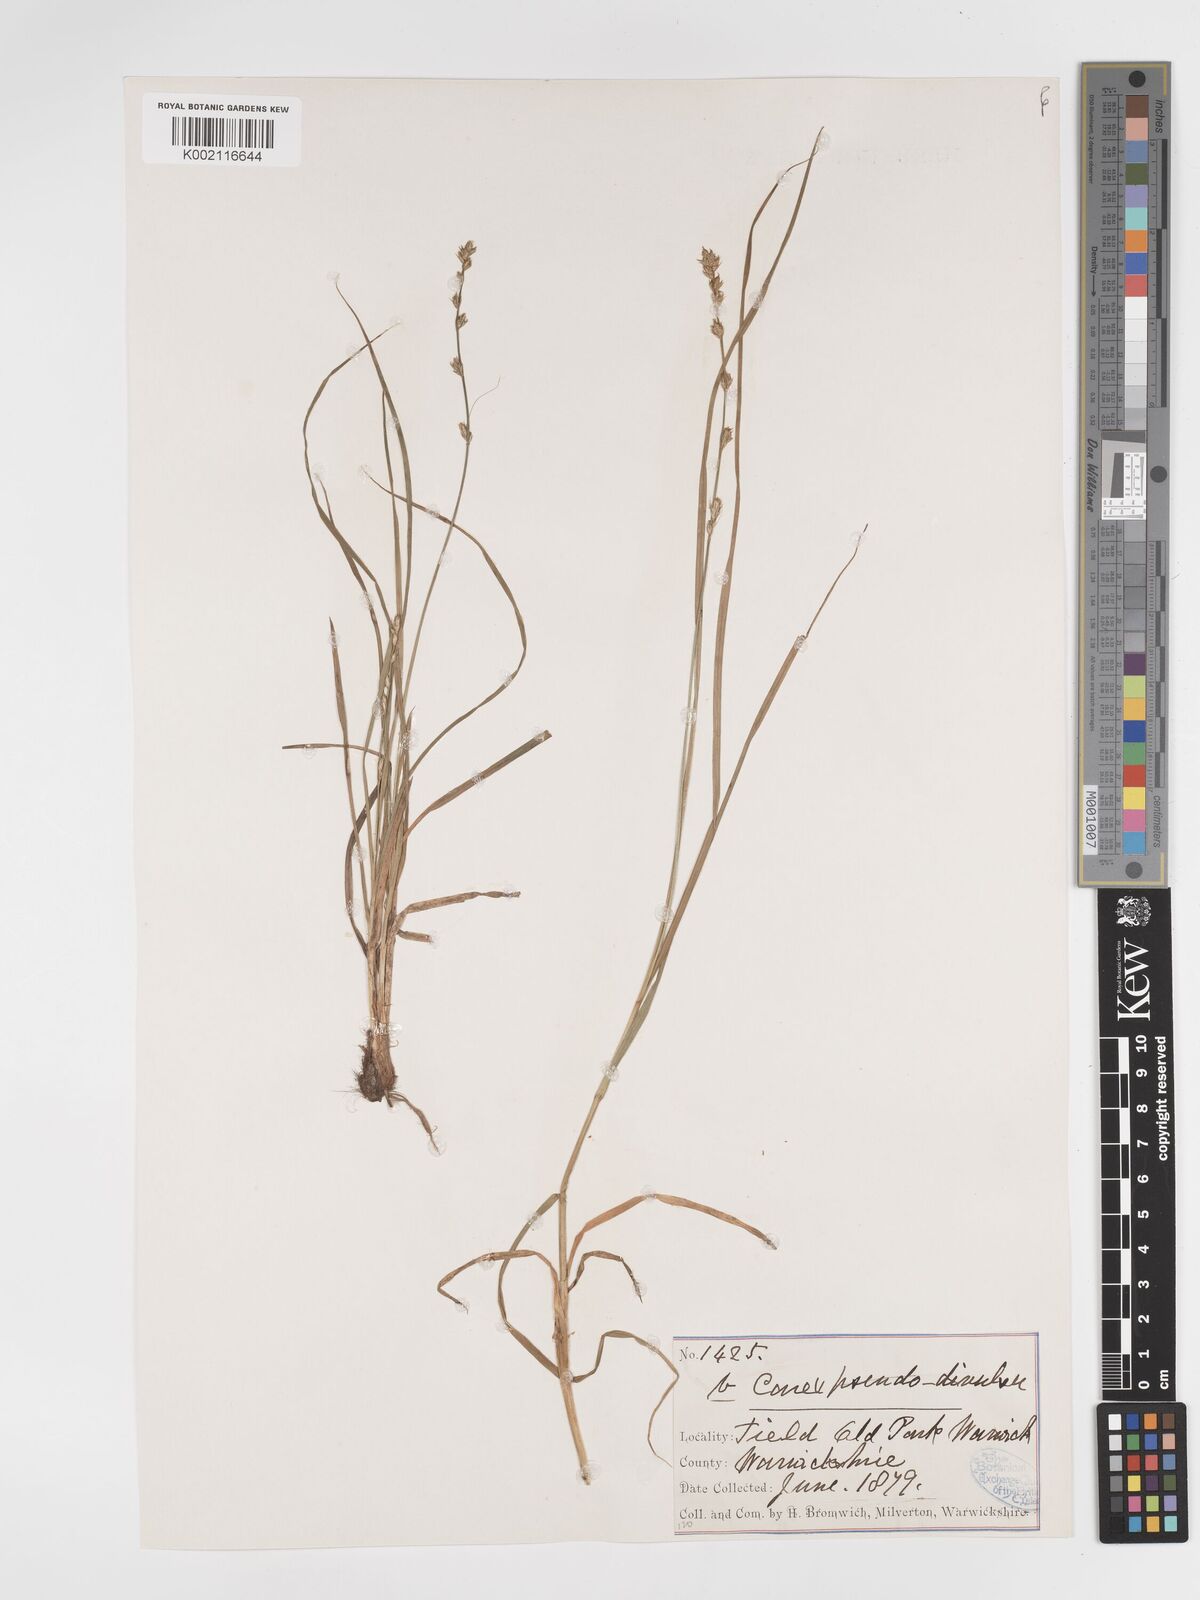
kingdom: Plantae
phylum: Tracheophyta
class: Liliopsida
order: Poales
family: Cyperaceae
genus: Carex
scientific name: Carex divulsa
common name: Grassland sedge
